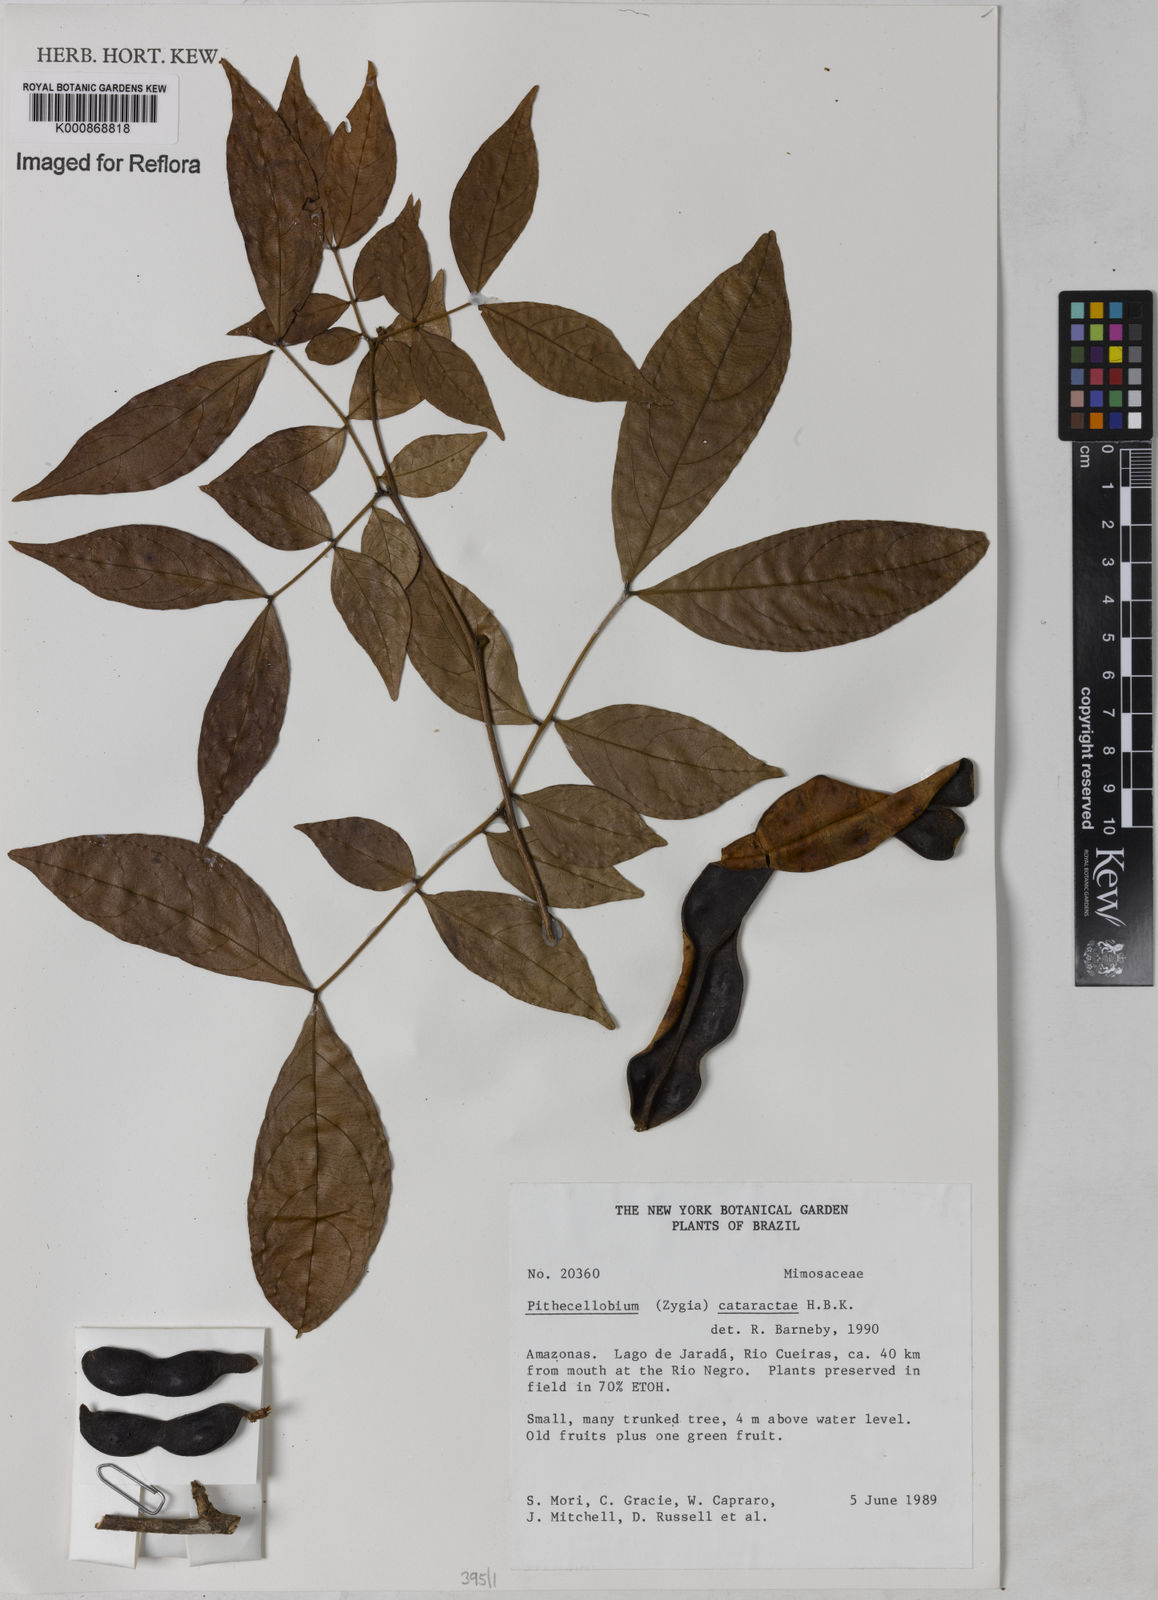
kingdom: Plantae
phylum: Tracheophyta
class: Magnoliopsida
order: Fabales
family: Fabaceae
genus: Zygia
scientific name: Zygia cataractae
